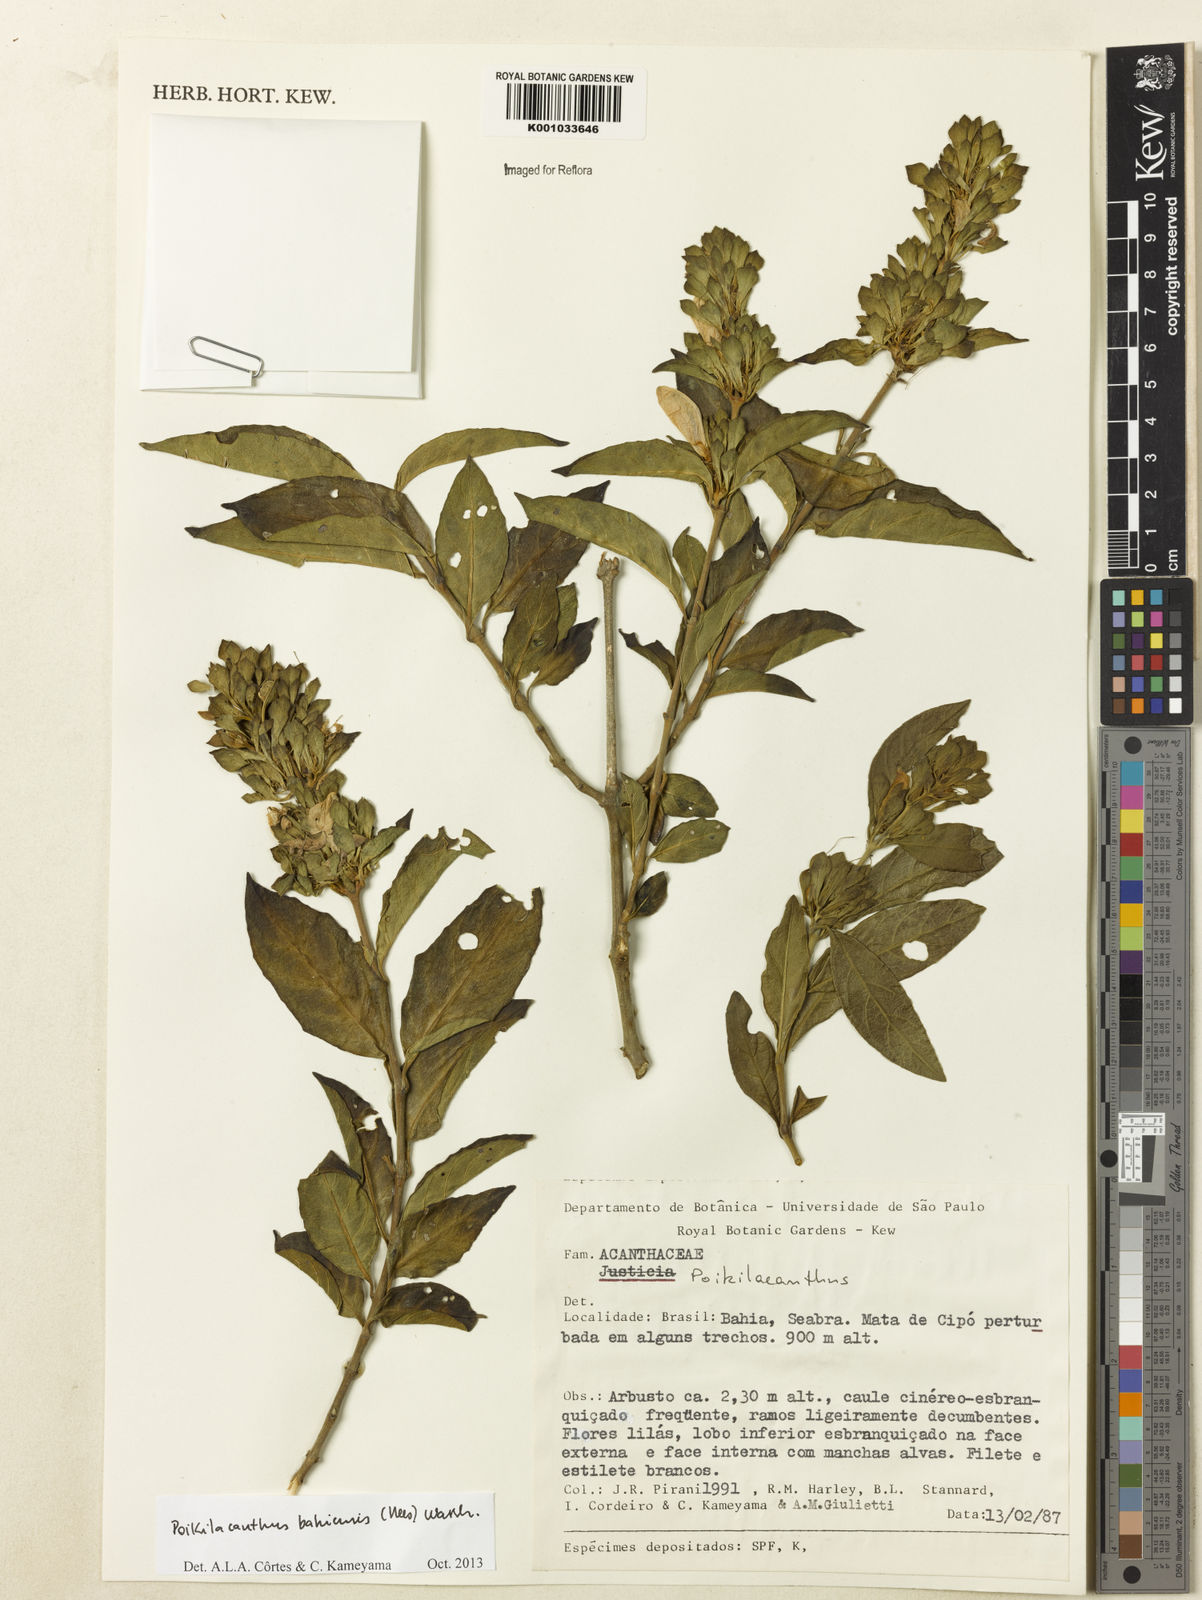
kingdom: Plantae
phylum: Tracheophyta
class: Magnoliopsida
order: Lamiales
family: Acanthaceae
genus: Poikilacanthus
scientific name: Poikilacanthus bahiensis
